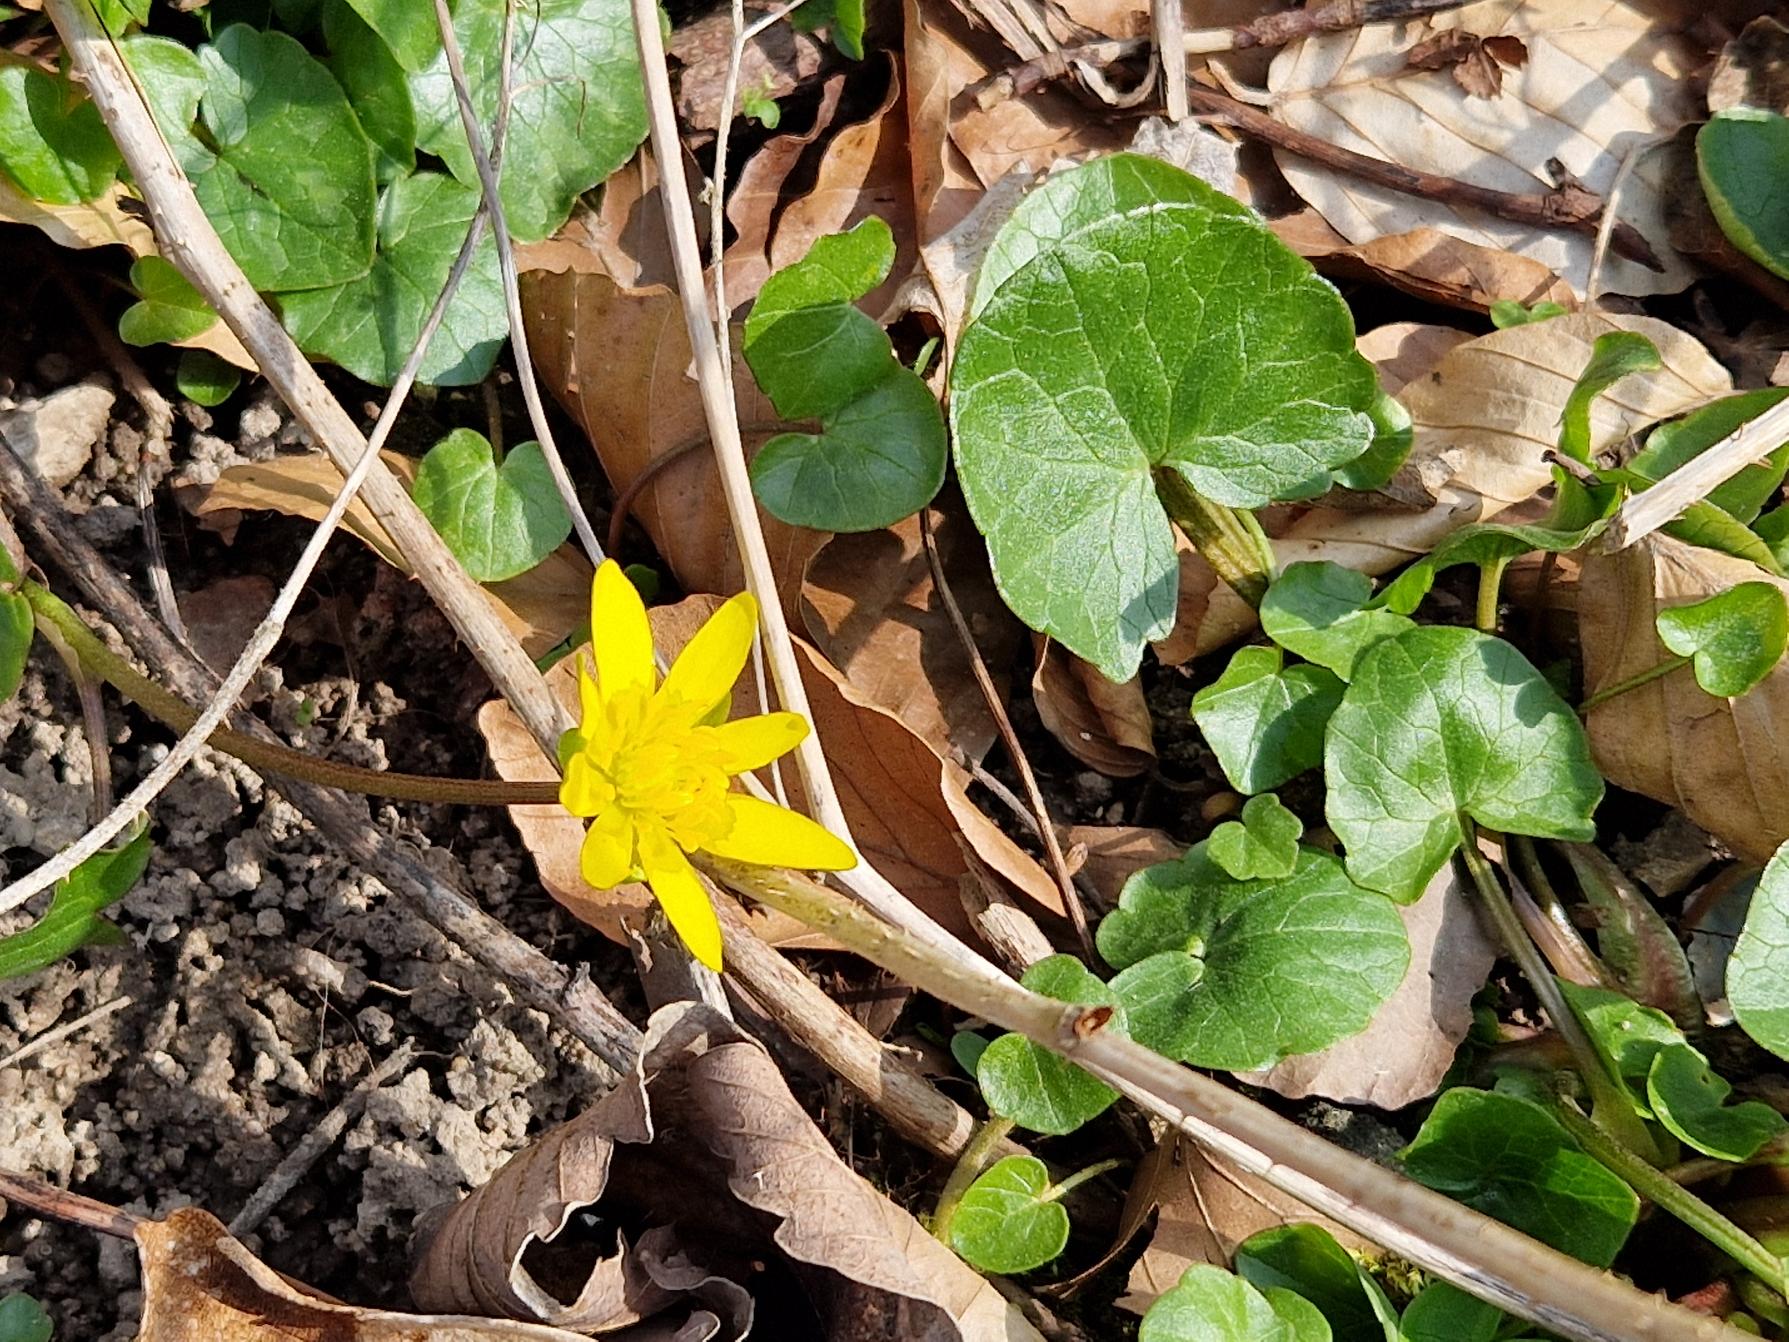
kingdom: Plantae
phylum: Tracheophyta
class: Magnoliopsida
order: Ranunculales
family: Ranunculaceae
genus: Ficaria
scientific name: Ficaria verna
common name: Vorterod
